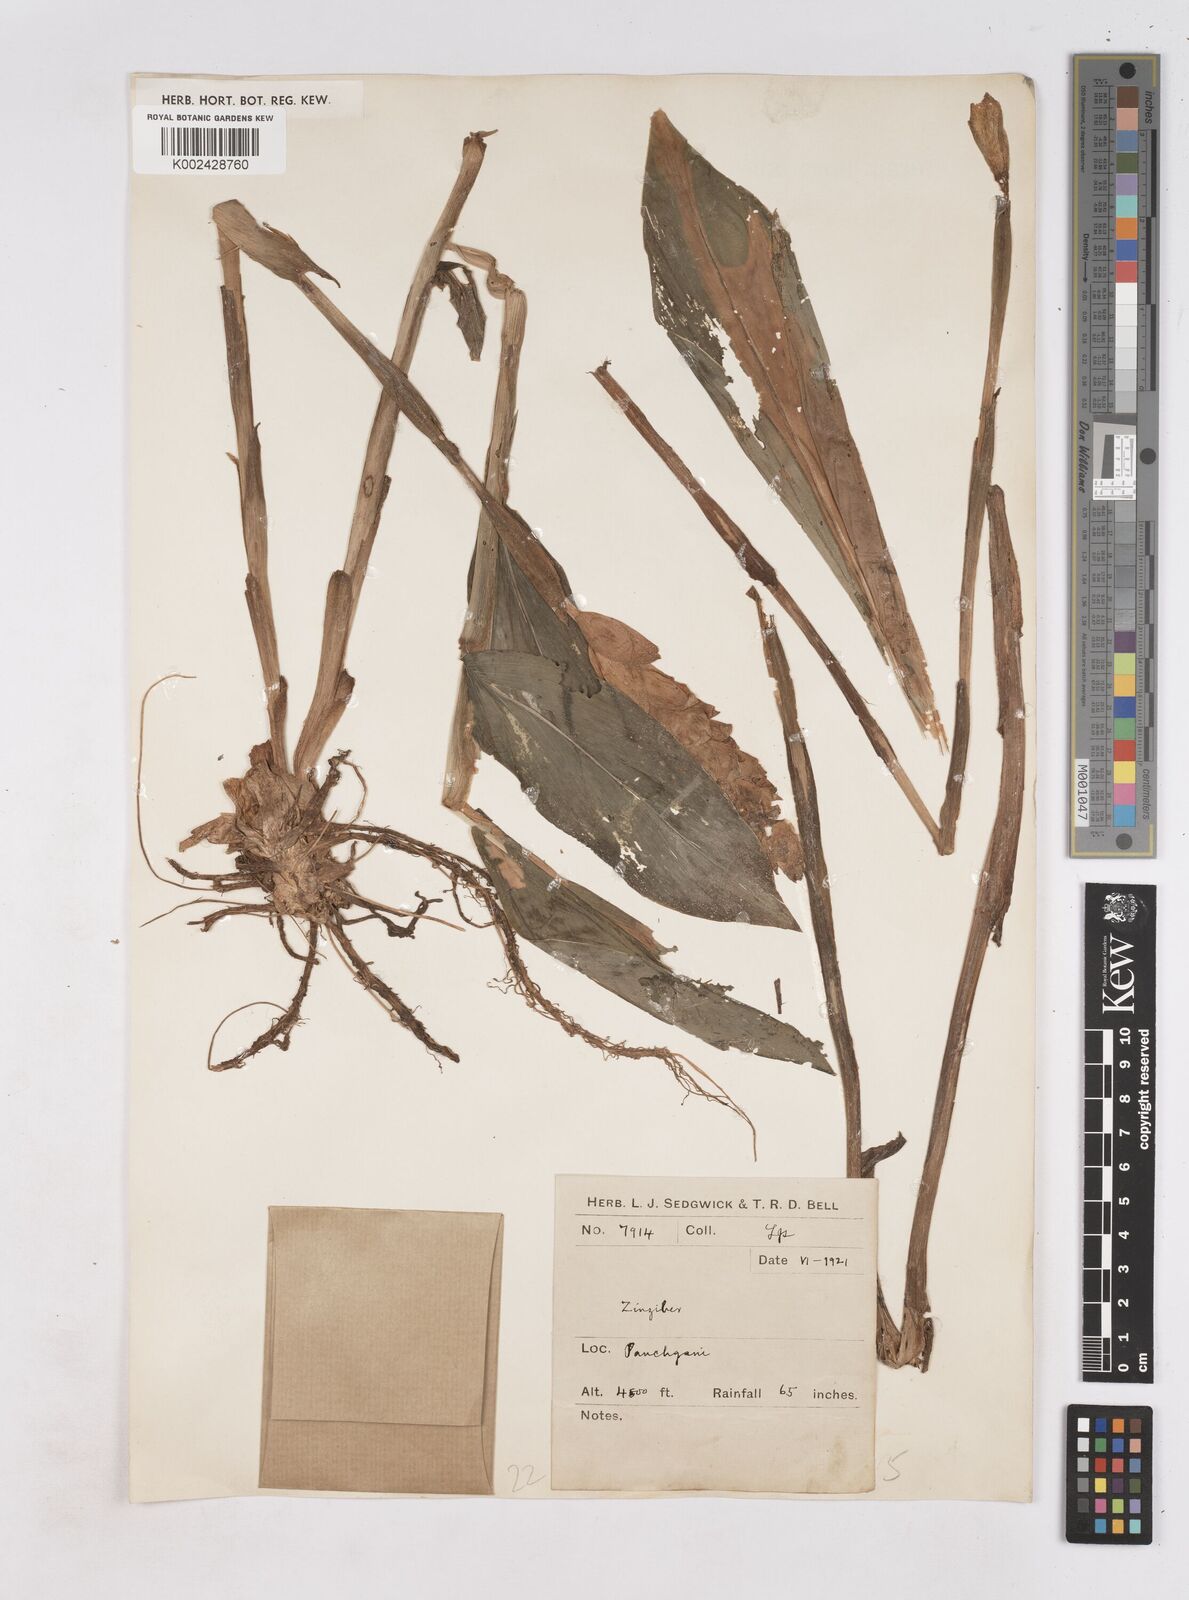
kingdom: Plantae
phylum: Tracheophyta
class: Liliopsida
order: Zingiberales
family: Zingiberaceae
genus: Zingiber
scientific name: Zingiber
